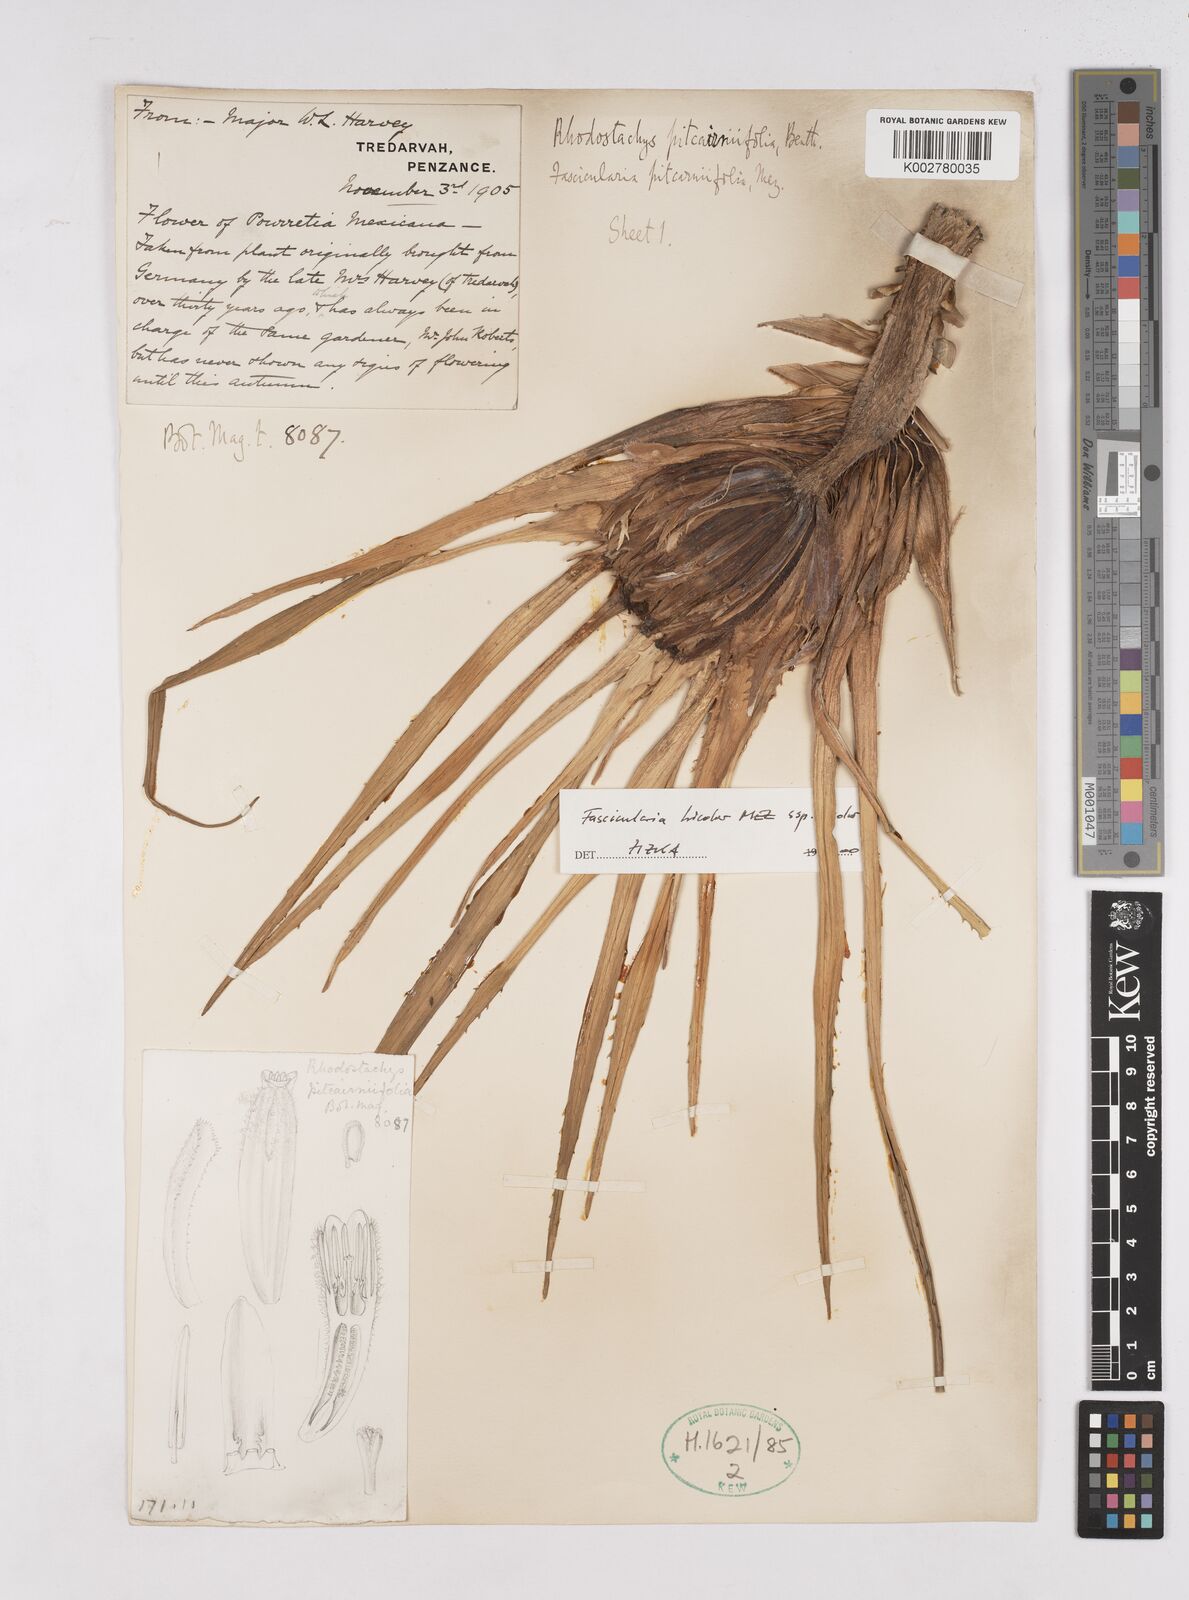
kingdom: Plantae
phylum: Tracheophyta
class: Liliopsida
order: Poales
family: Bromeliaceae
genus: Hechtia
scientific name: Hechtia pitcairniifolia
